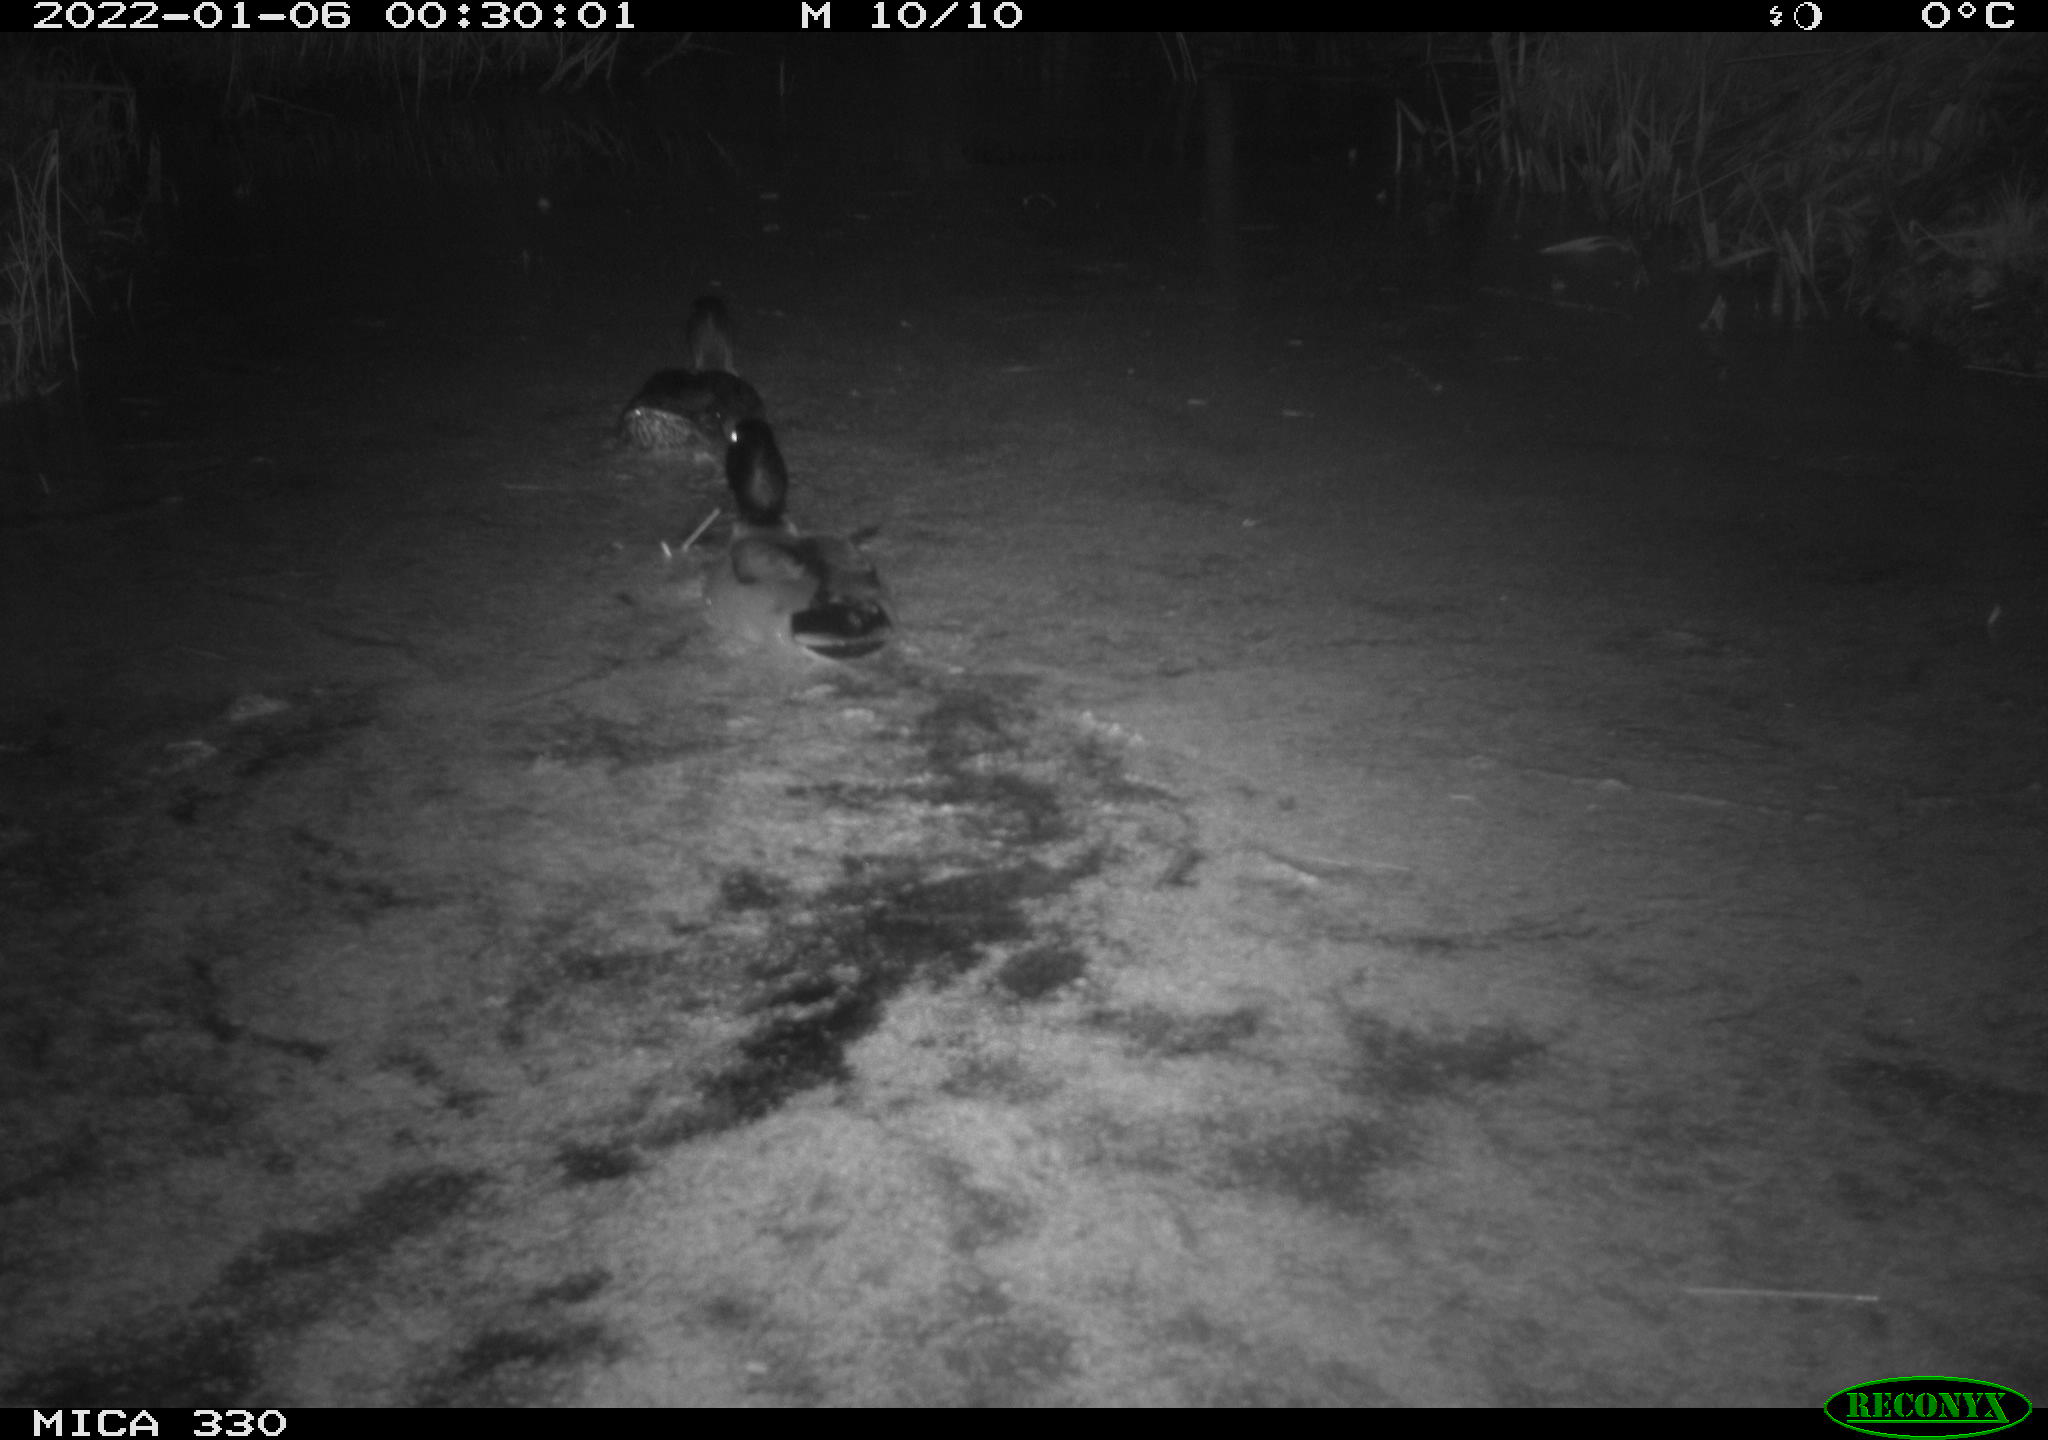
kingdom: Animalia
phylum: Chordata
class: Aves
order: Anseriformes
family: Anatidae
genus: Anas
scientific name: Anas platyrhynchos
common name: Mallard
